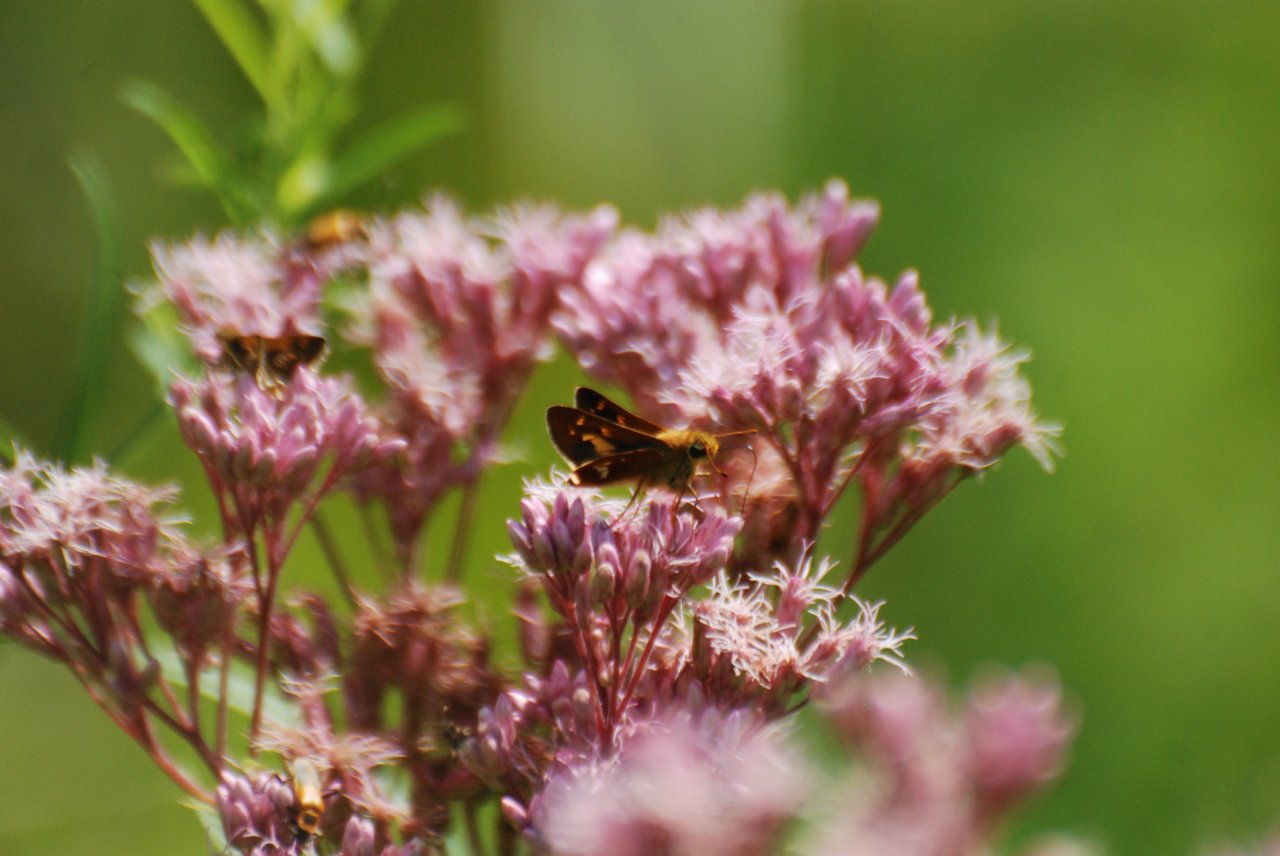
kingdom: Animalia
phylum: Arthropoda
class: Insecta
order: Lepidoptera
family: Hesperiidae
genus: Hesperia
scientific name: Hesperia leonardus
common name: Leonard's Skipper
